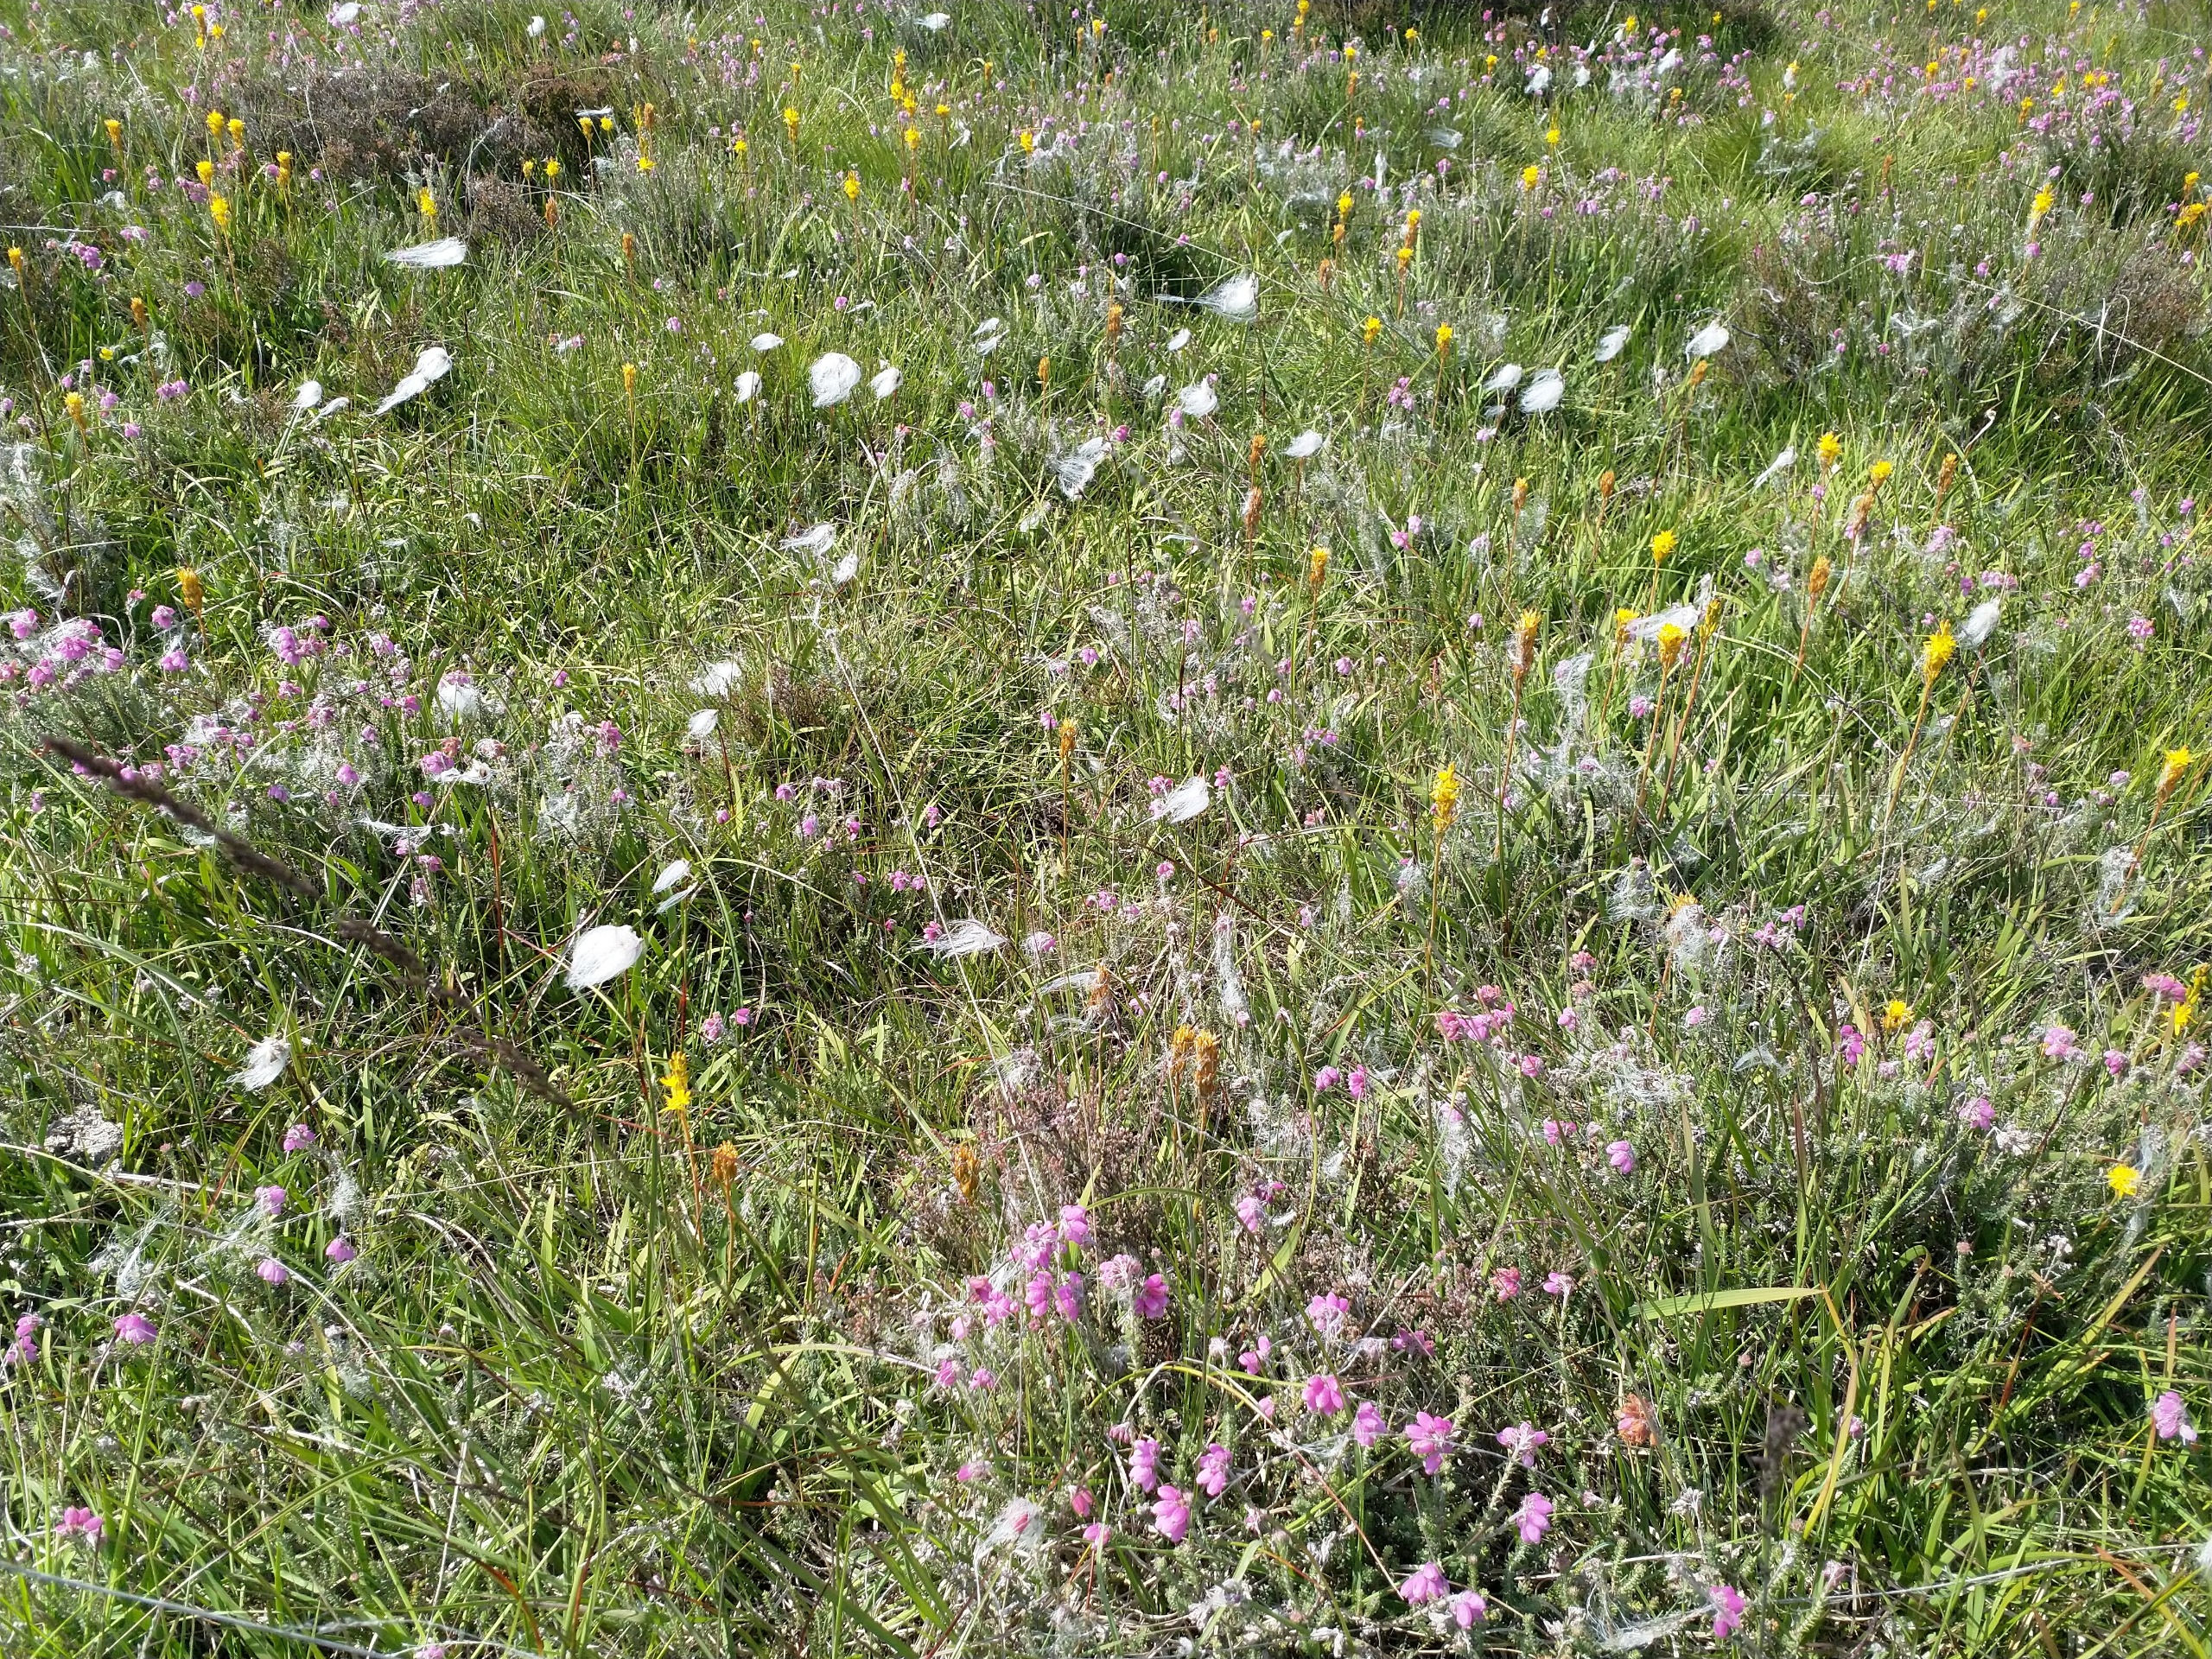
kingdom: Plantae
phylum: Tracheophyta
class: Liliopsida
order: Poales
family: Cyperaceae
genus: Eriophorum
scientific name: Eriophorum angustifolium
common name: Smalbladet kæruld
